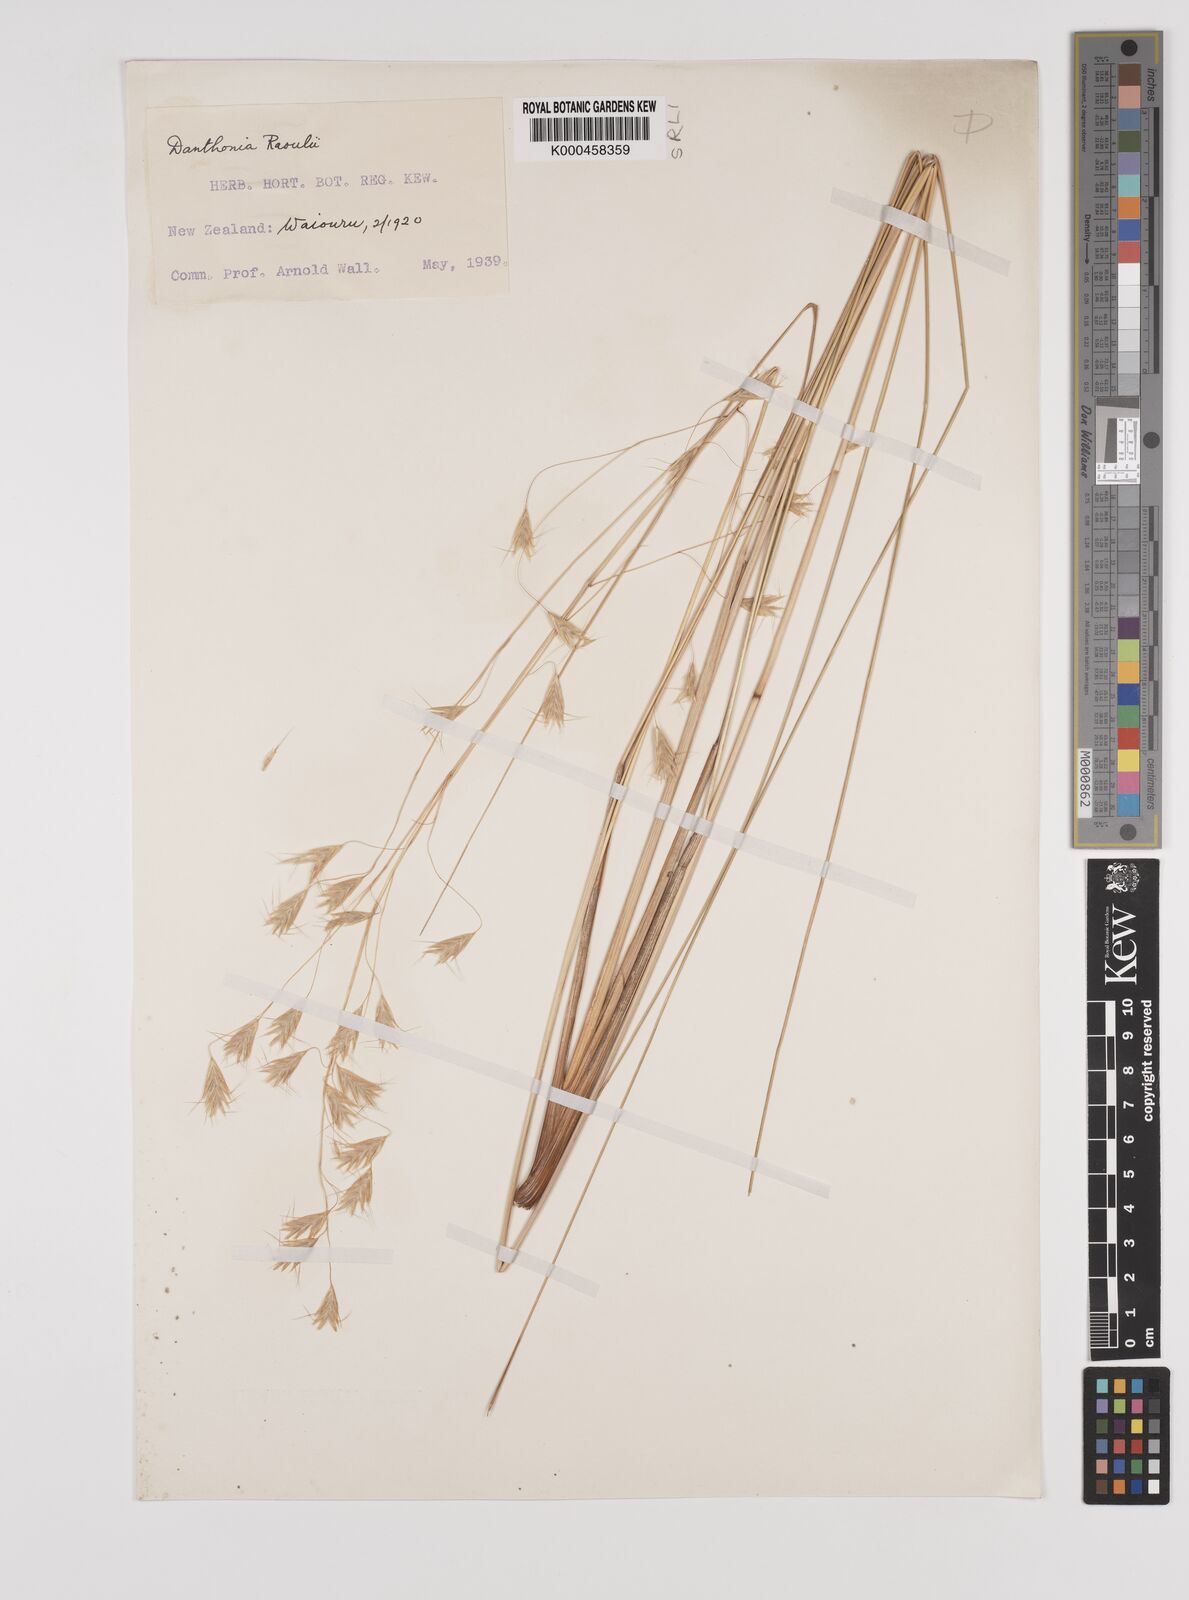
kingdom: Plantae
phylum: Tracheophyta
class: Liliopsida
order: Poales
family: Poaceae
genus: Chionochloa
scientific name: Chionochloa rigida
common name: Narrow leaved snow tussock
